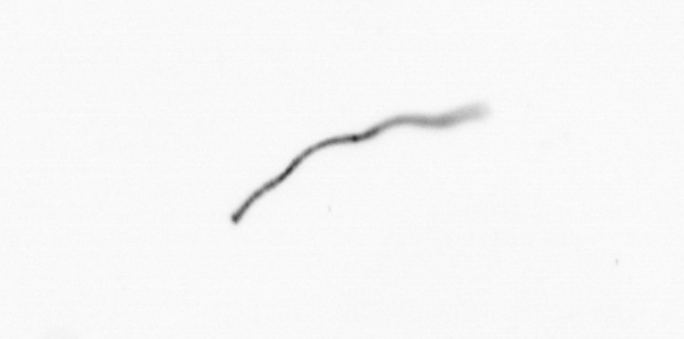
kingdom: Chromista
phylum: Ochrophyta
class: Bacillariophyceae
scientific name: Bacillariophyceae
